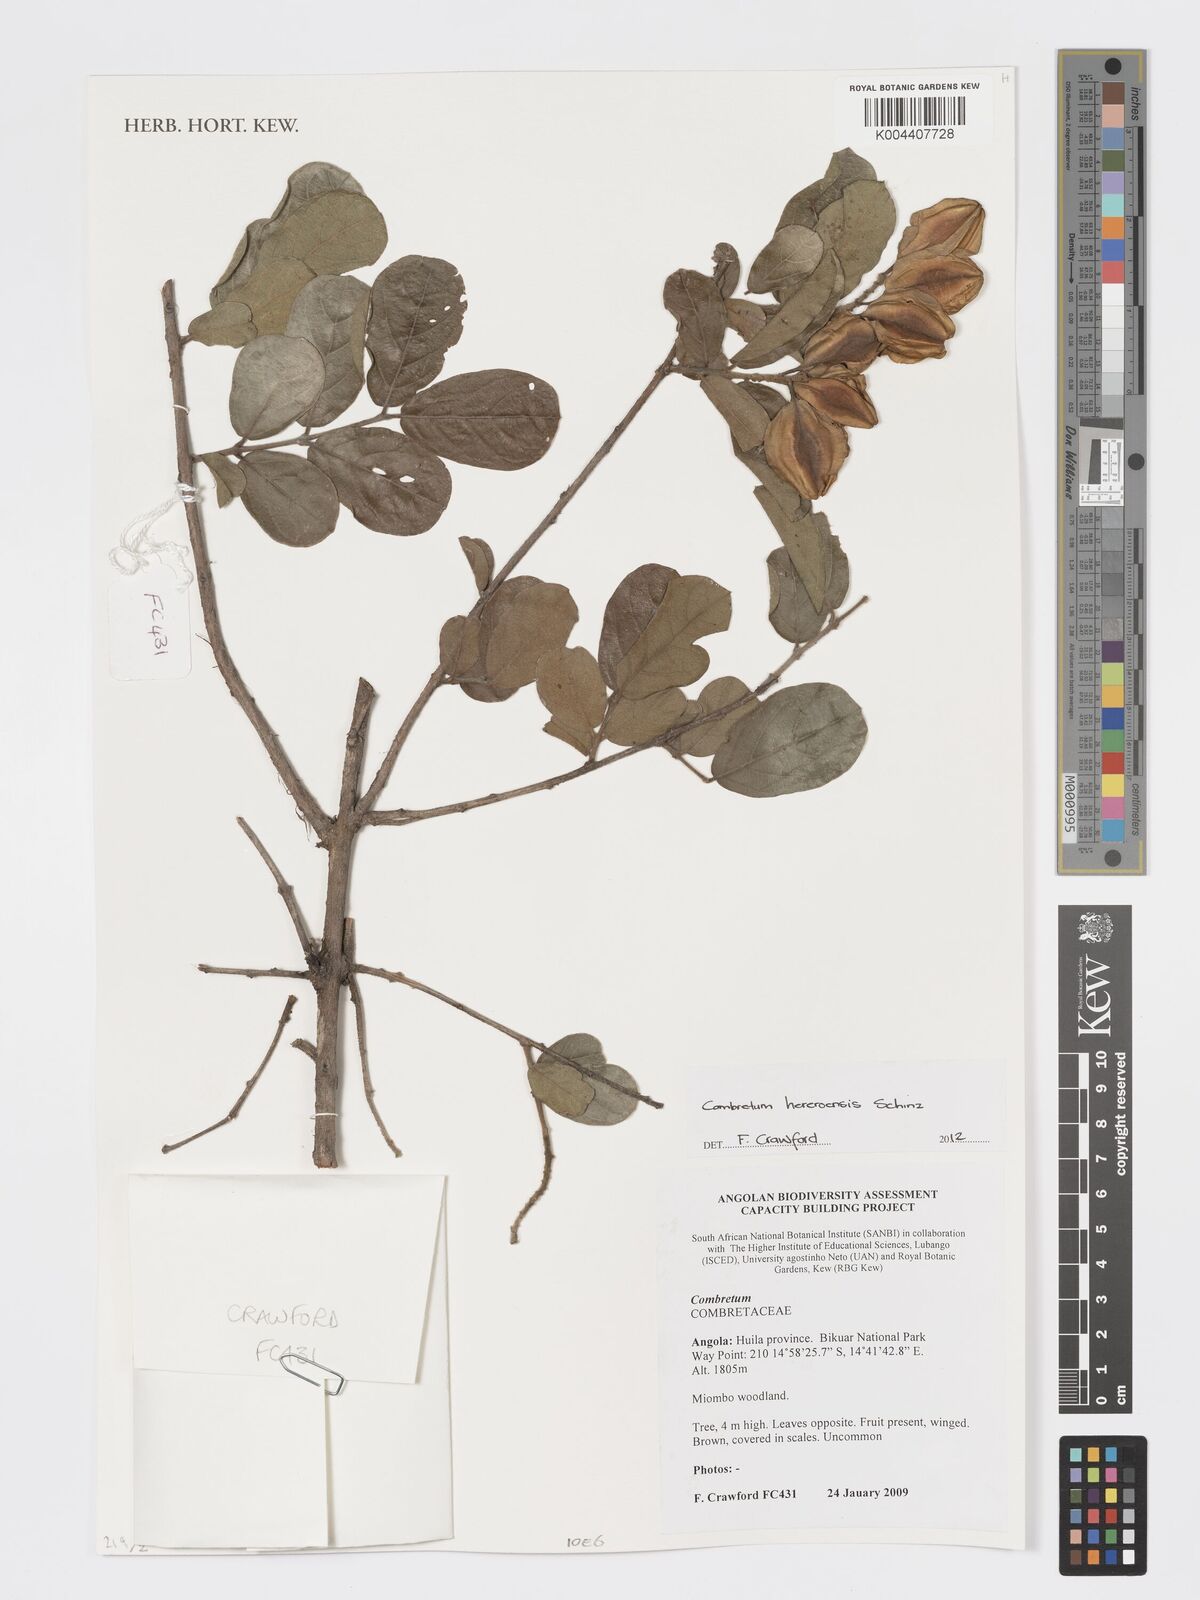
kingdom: Plantae
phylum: Tracheophyta
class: Magnoliopsida
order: Myrtales
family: Combretaceae
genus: Combretum
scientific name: Combretum hereroense
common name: Russet bushwillow
